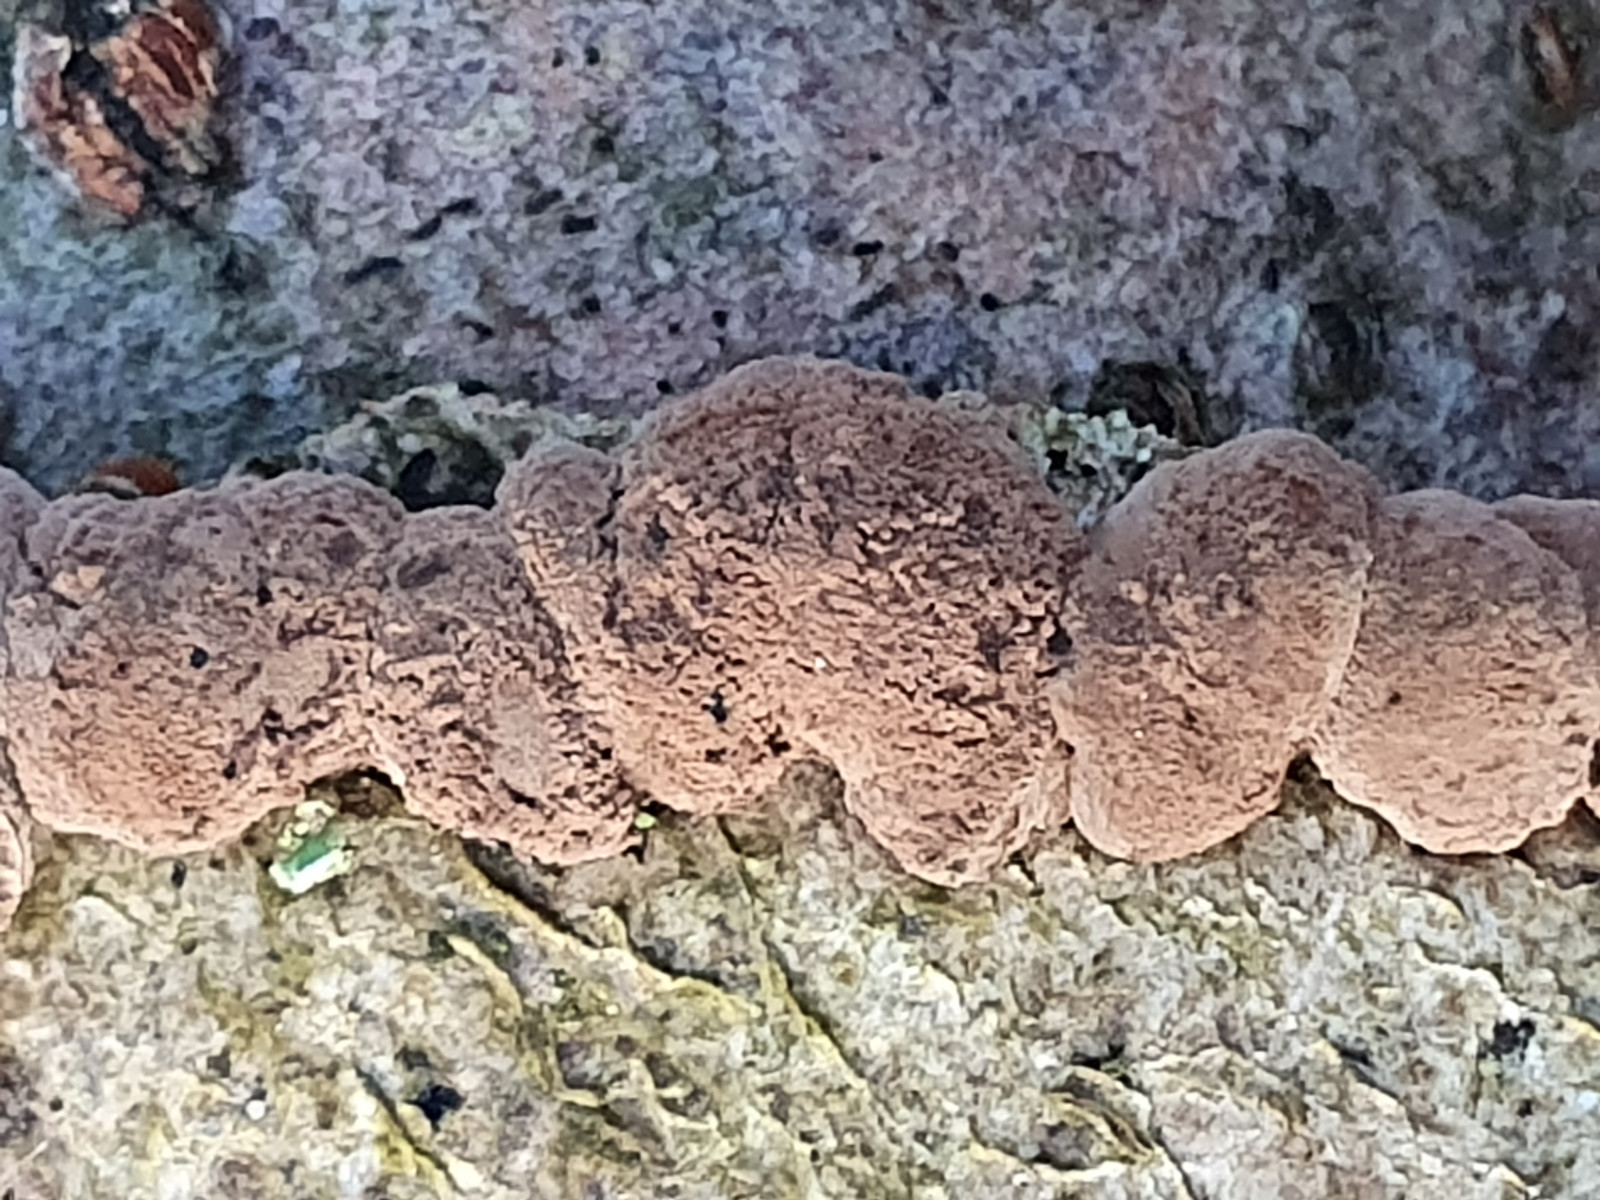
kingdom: Fungi
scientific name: Fungi
